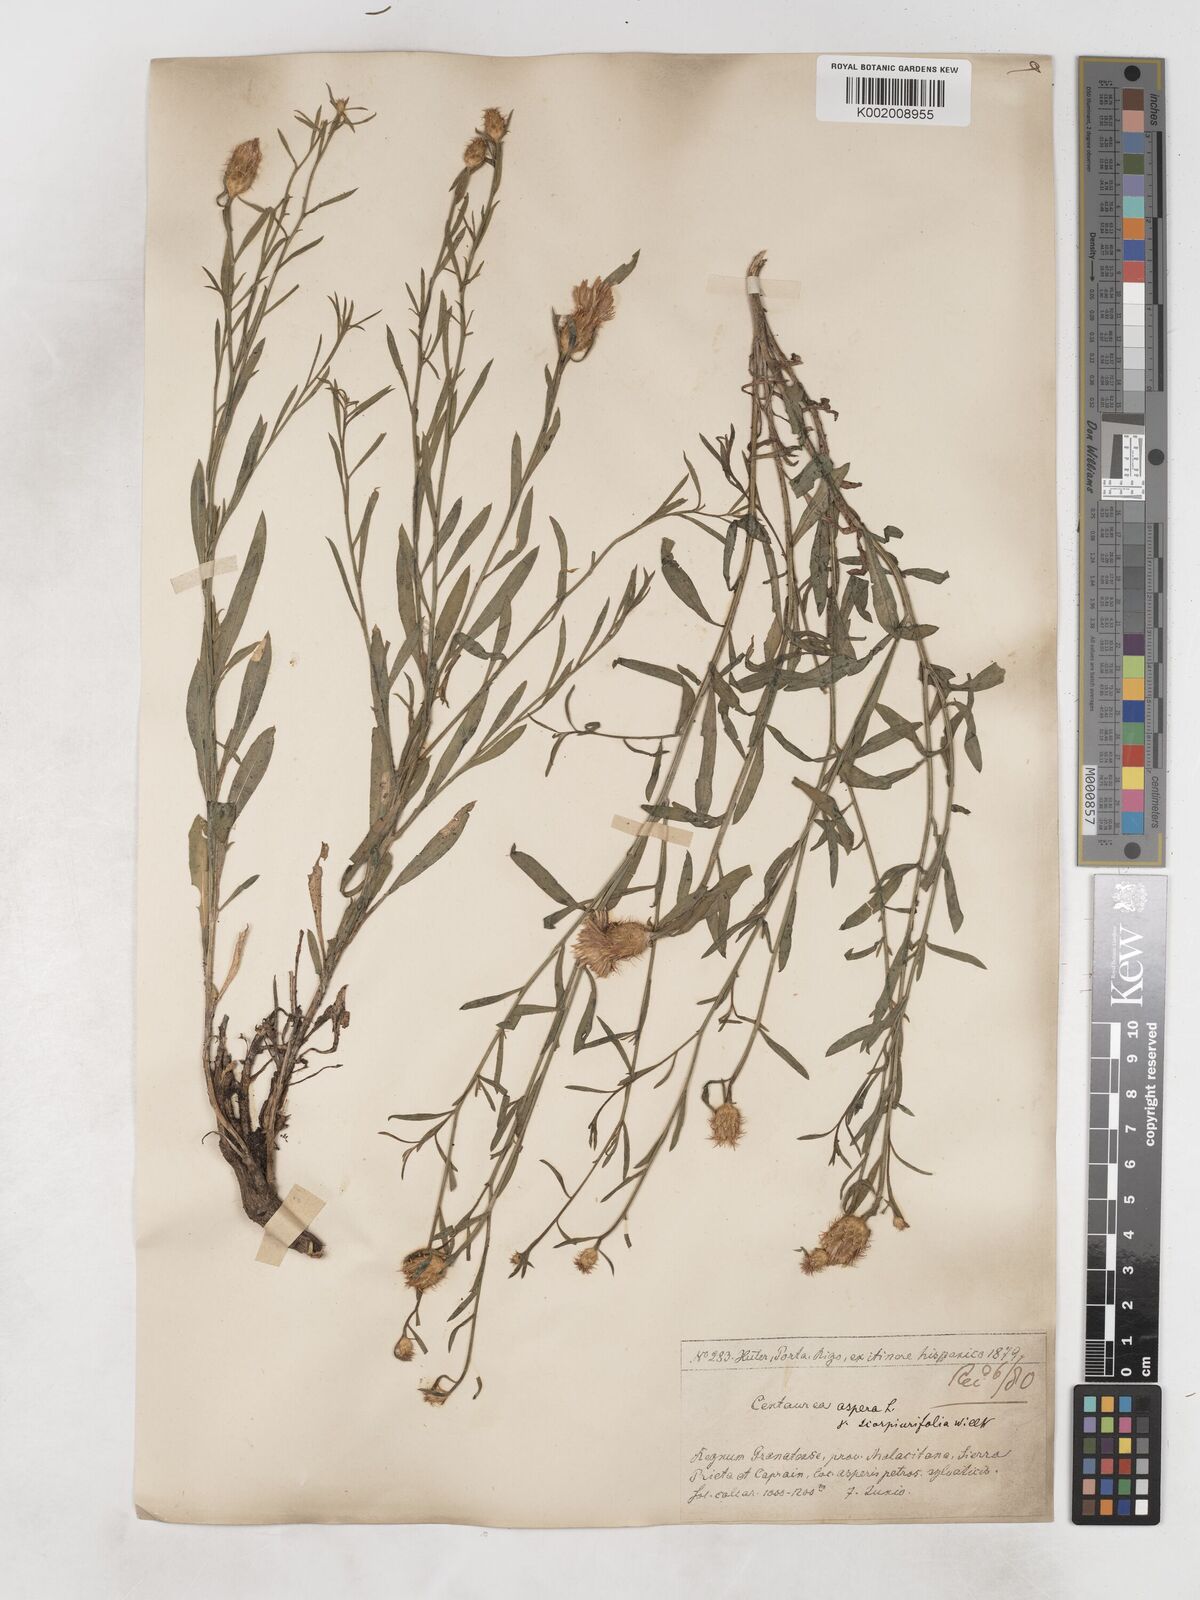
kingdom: Plantae
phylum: Tracheophyta
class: Magnoliopsida
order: Asterales
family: Asteraceae
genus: Centaurea
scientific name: Centaurea aspera
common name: Rough star-thistle
